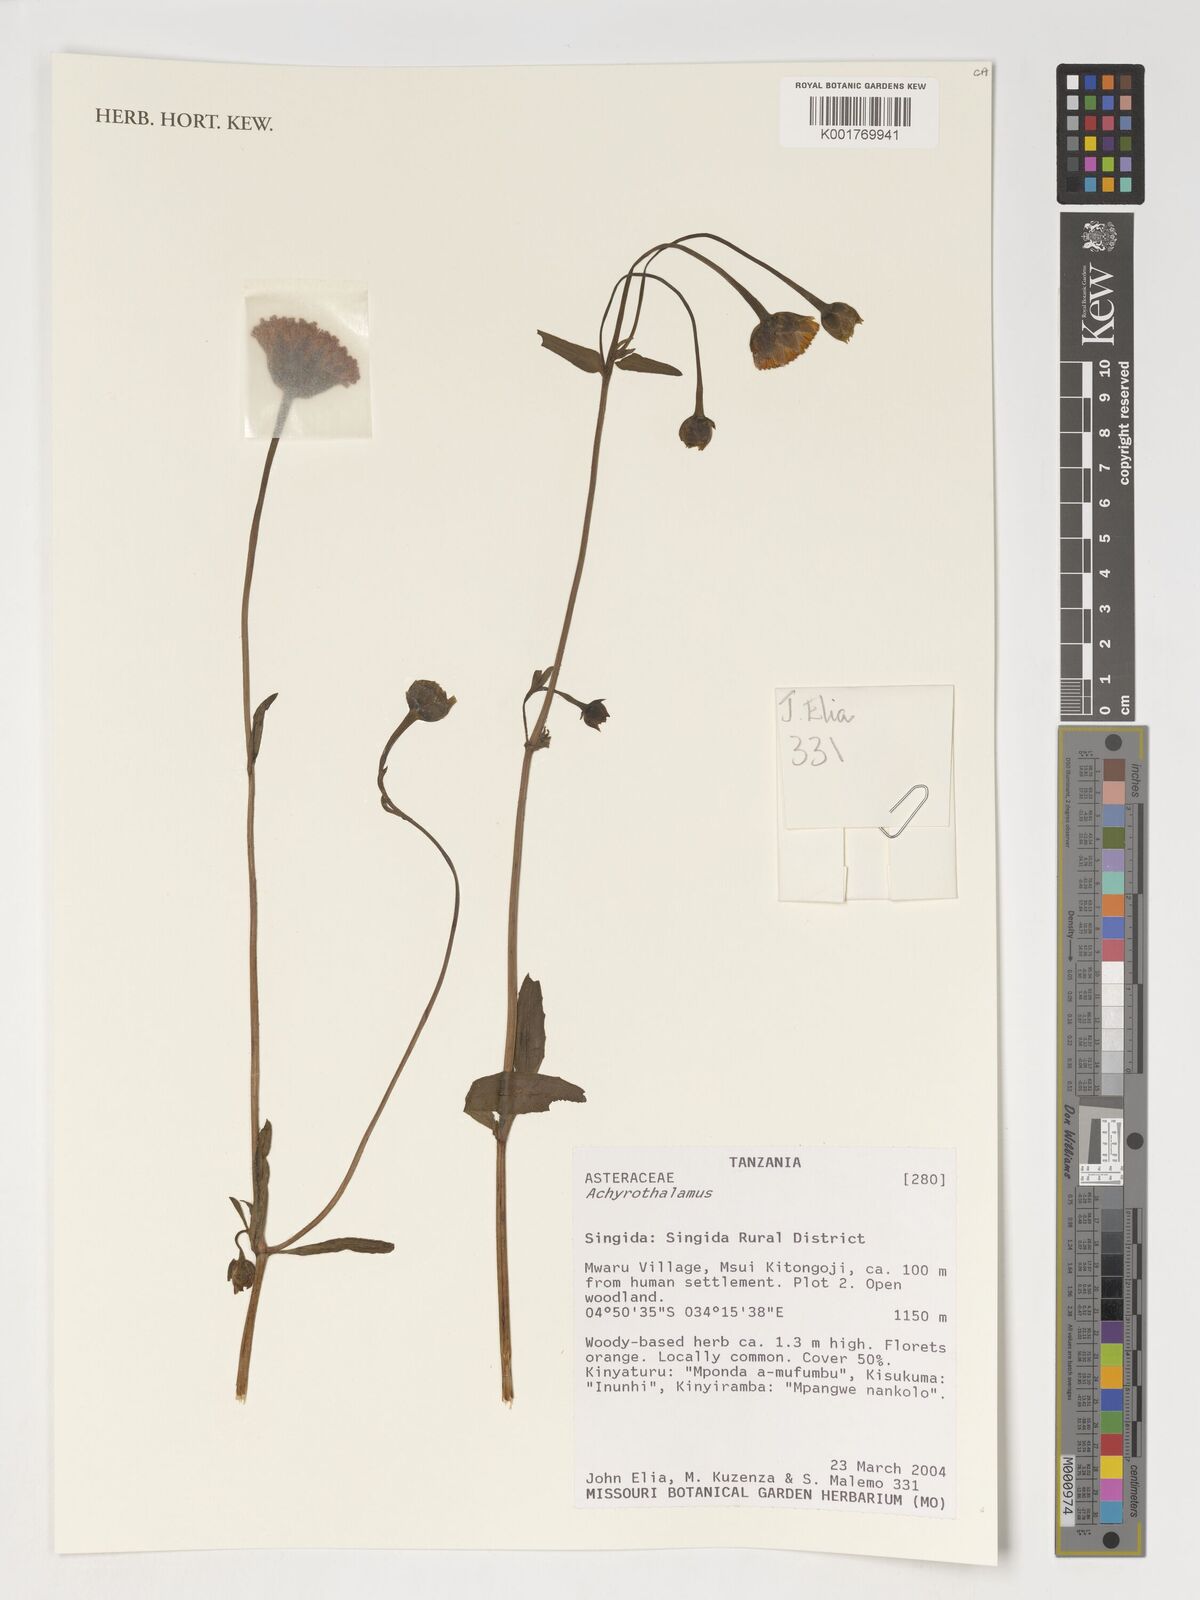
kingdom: Plantae
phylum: Tracheophyta
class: Magnoliopsida
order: Asterales
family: Asteraceae
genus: Erythrocephalum
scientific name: Erythrocephalum
